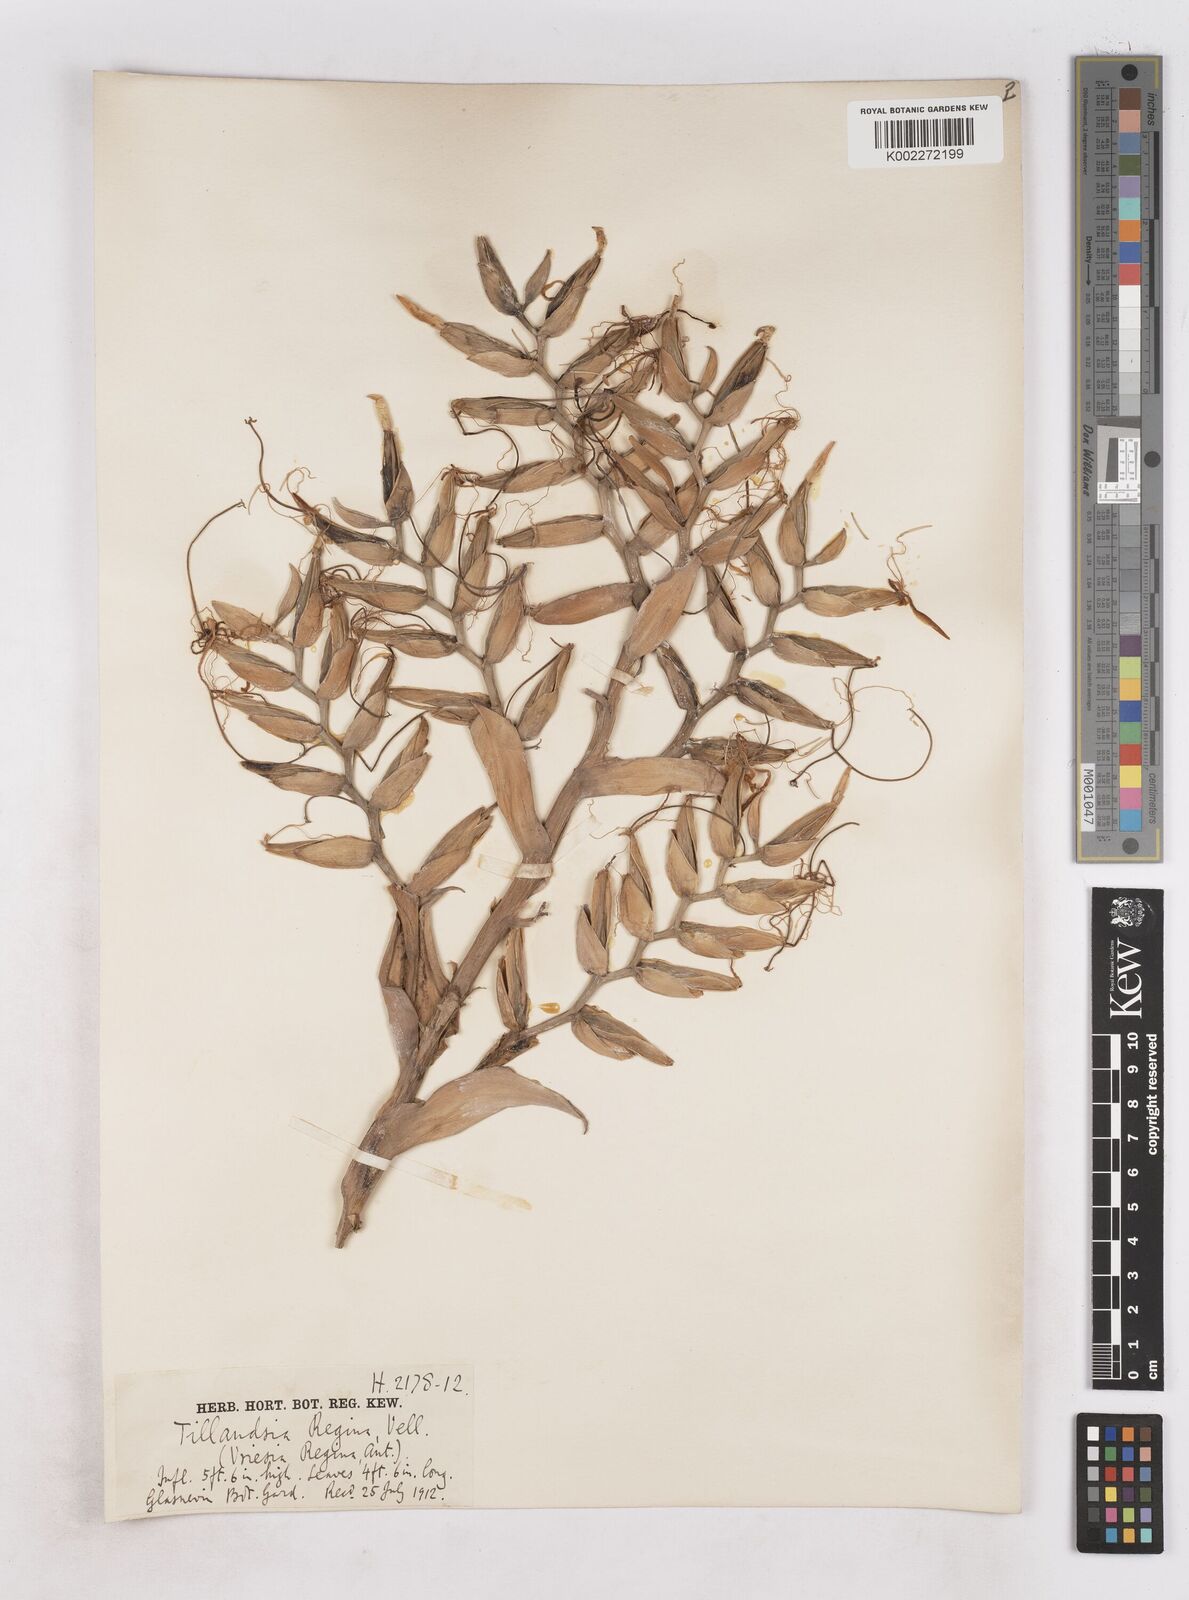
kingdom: Plantae
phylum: Tracheophyta
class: Liliopsida
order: Poales
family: Bromeliaceae
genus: Alcantarea
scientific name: Alcantarea regina
